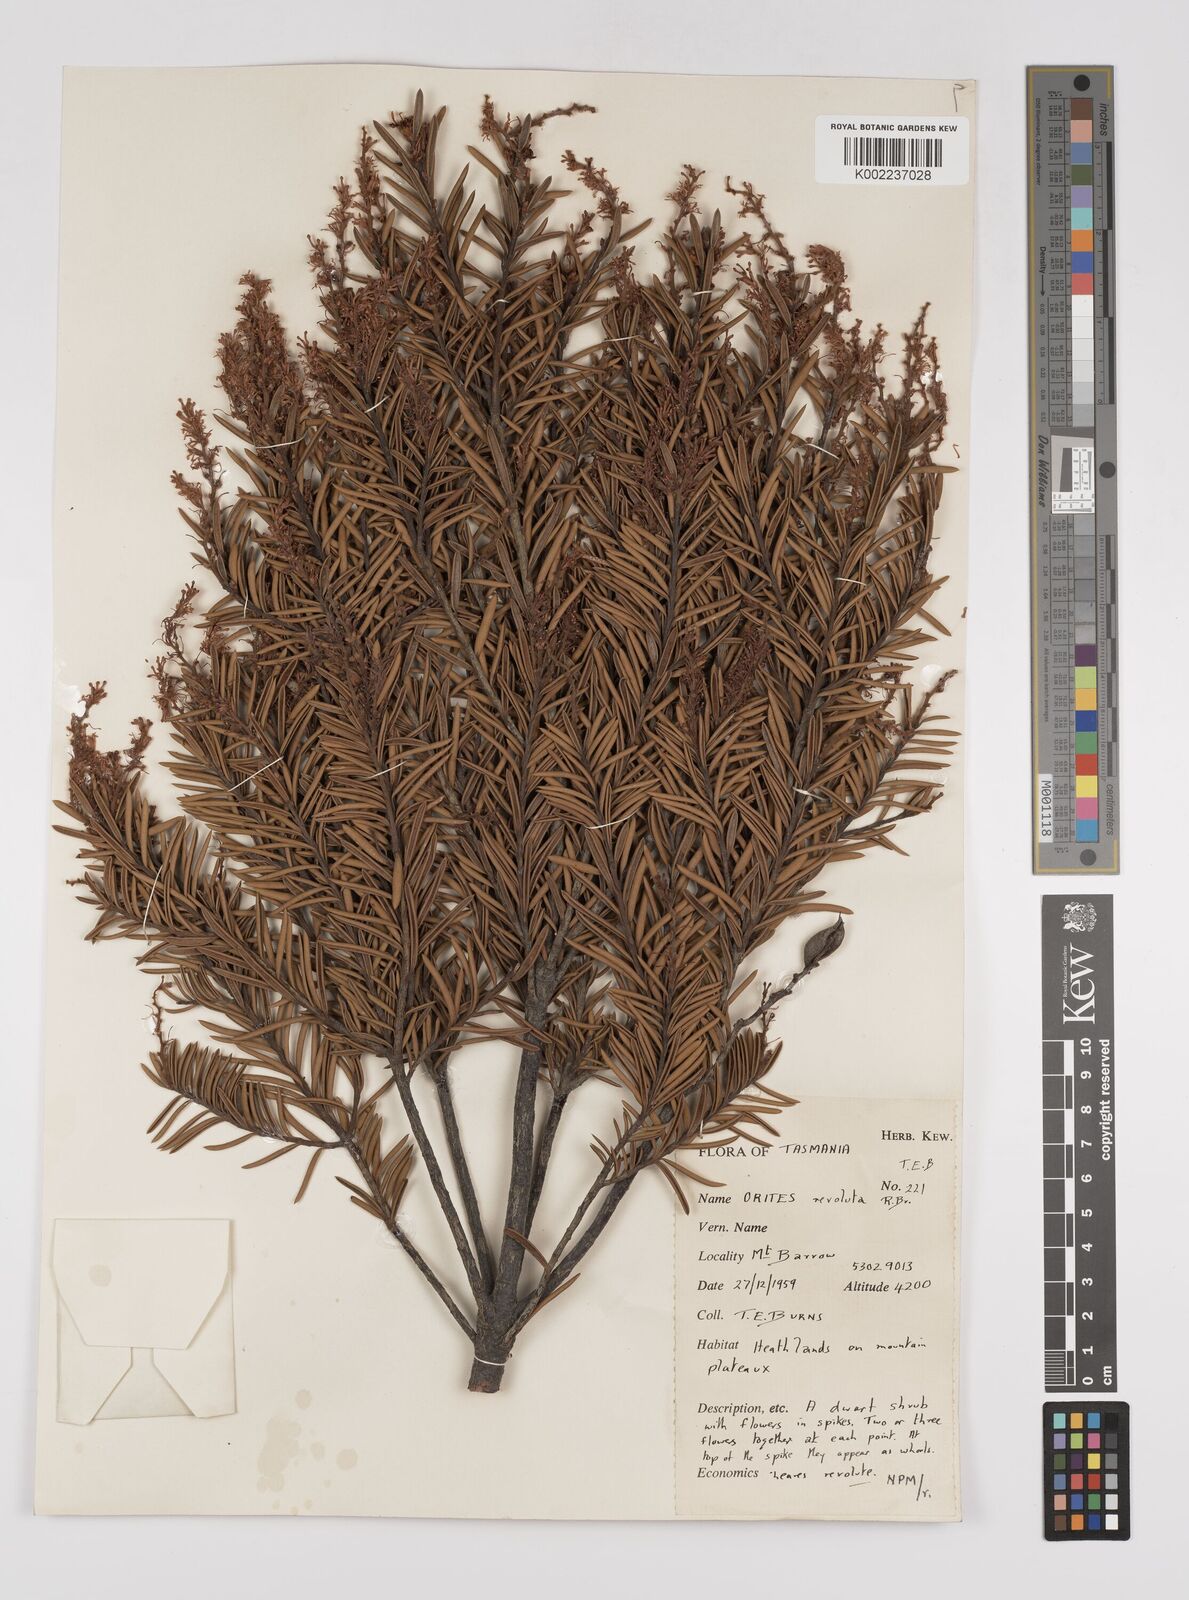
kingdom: Plantae
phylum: Tracheophyta
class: Magnoliopsida
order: Proteales
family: Proteaceae
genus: Orites
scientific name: Orites revolutus
